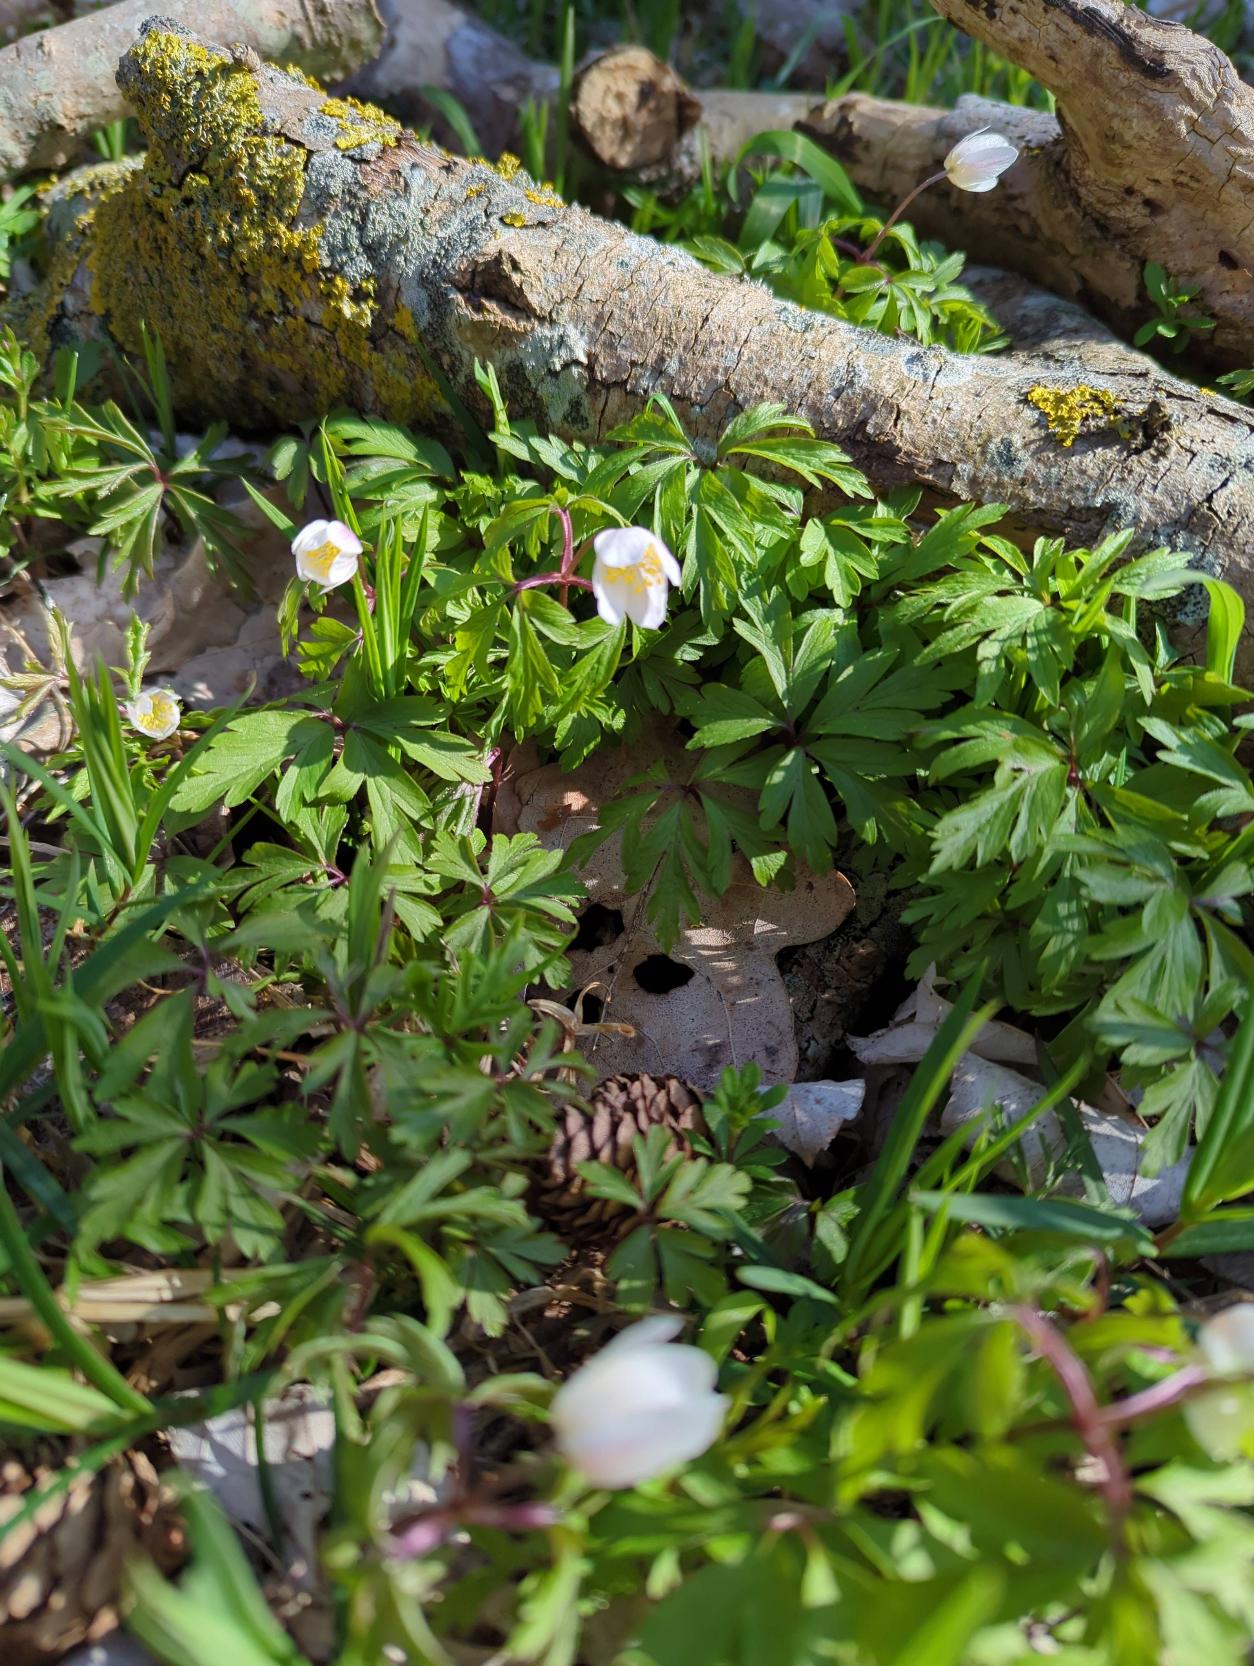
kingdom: Plantae
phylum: Tracheophyta
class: Magnoliopsida
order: Ranunculales
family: Ranunculaceae
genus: Anemone
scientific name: Anemone nemorosa
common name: Hvid anemone
